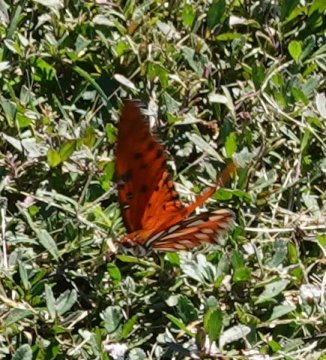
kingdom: Animalia
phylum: Arthropoda
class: Insecta
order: Lepidoptera
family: Nymphalidae
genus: Dione
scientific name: Dione vanillae
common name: Gulf Fritillary
